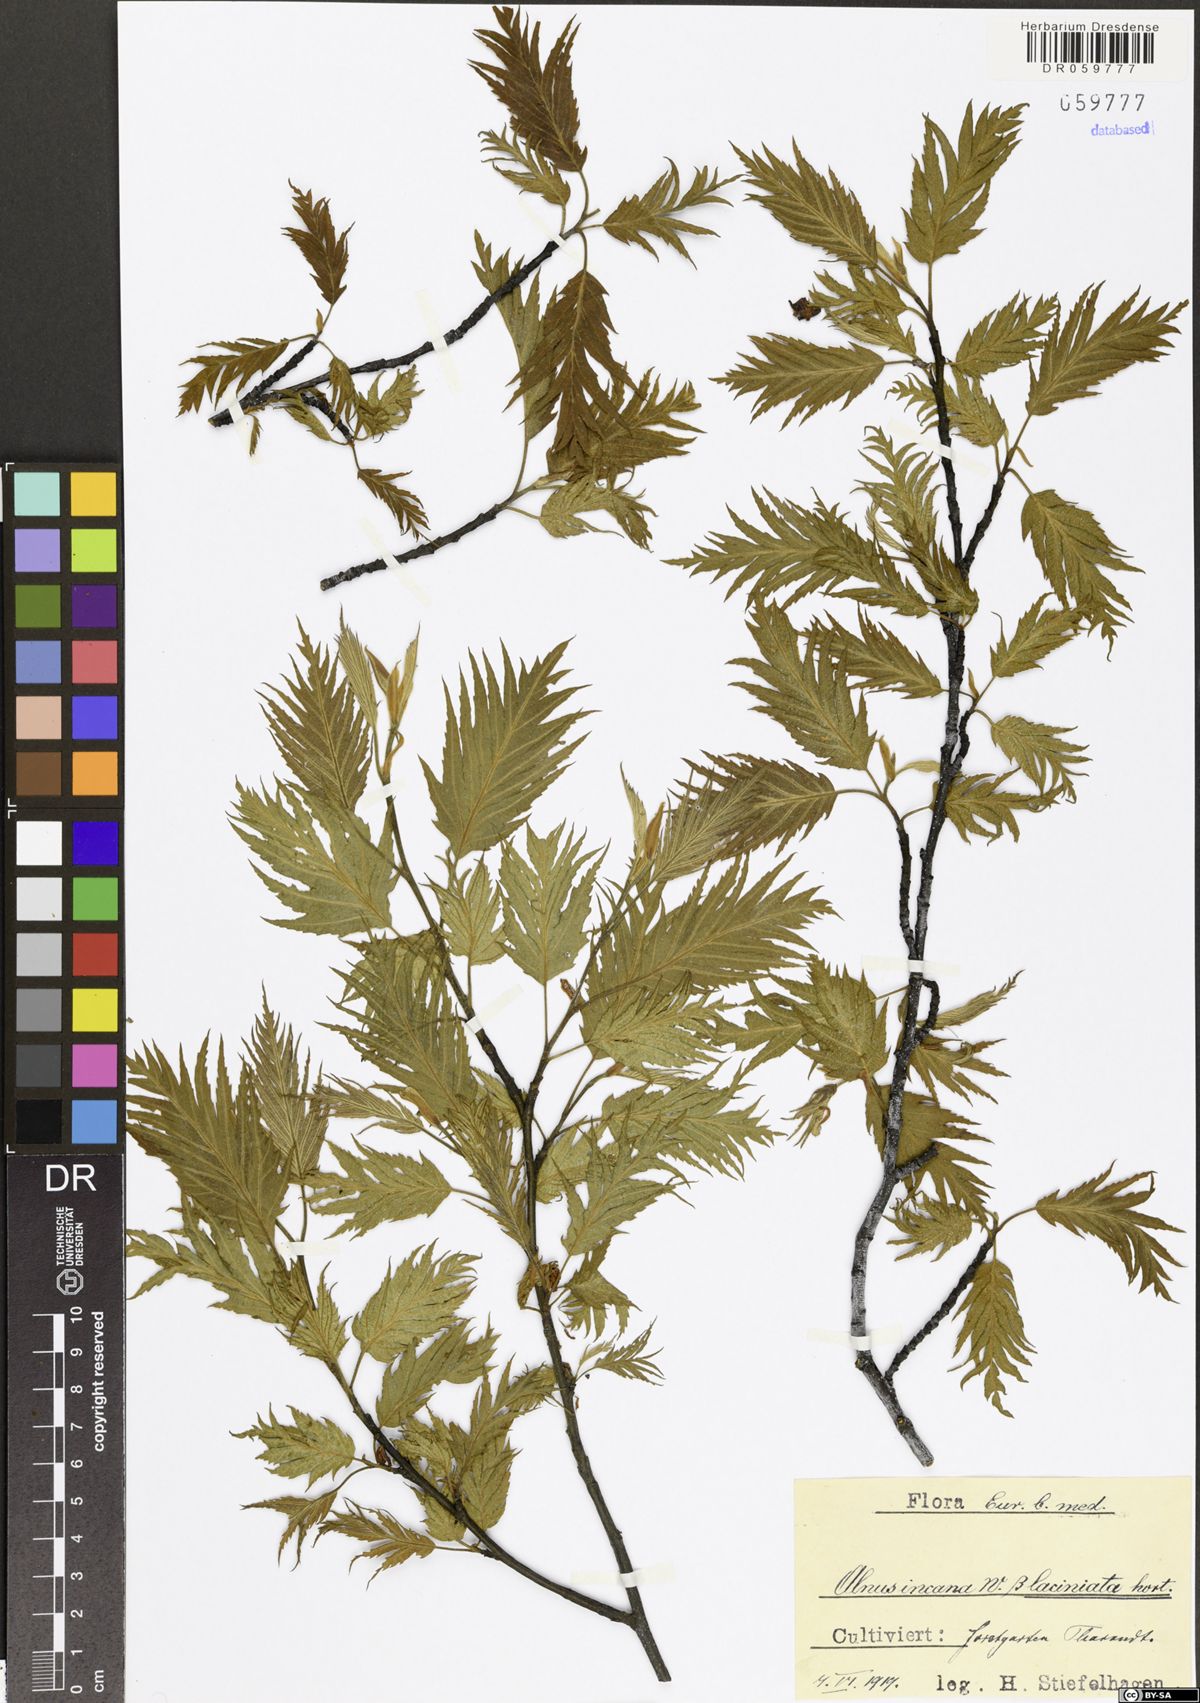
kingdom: Plantae
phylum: Tracheophyta
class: Magnoliopsida
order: Fagales
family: Betulaceae
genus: Alnus
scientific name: Alnus incana
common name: Grey alder
